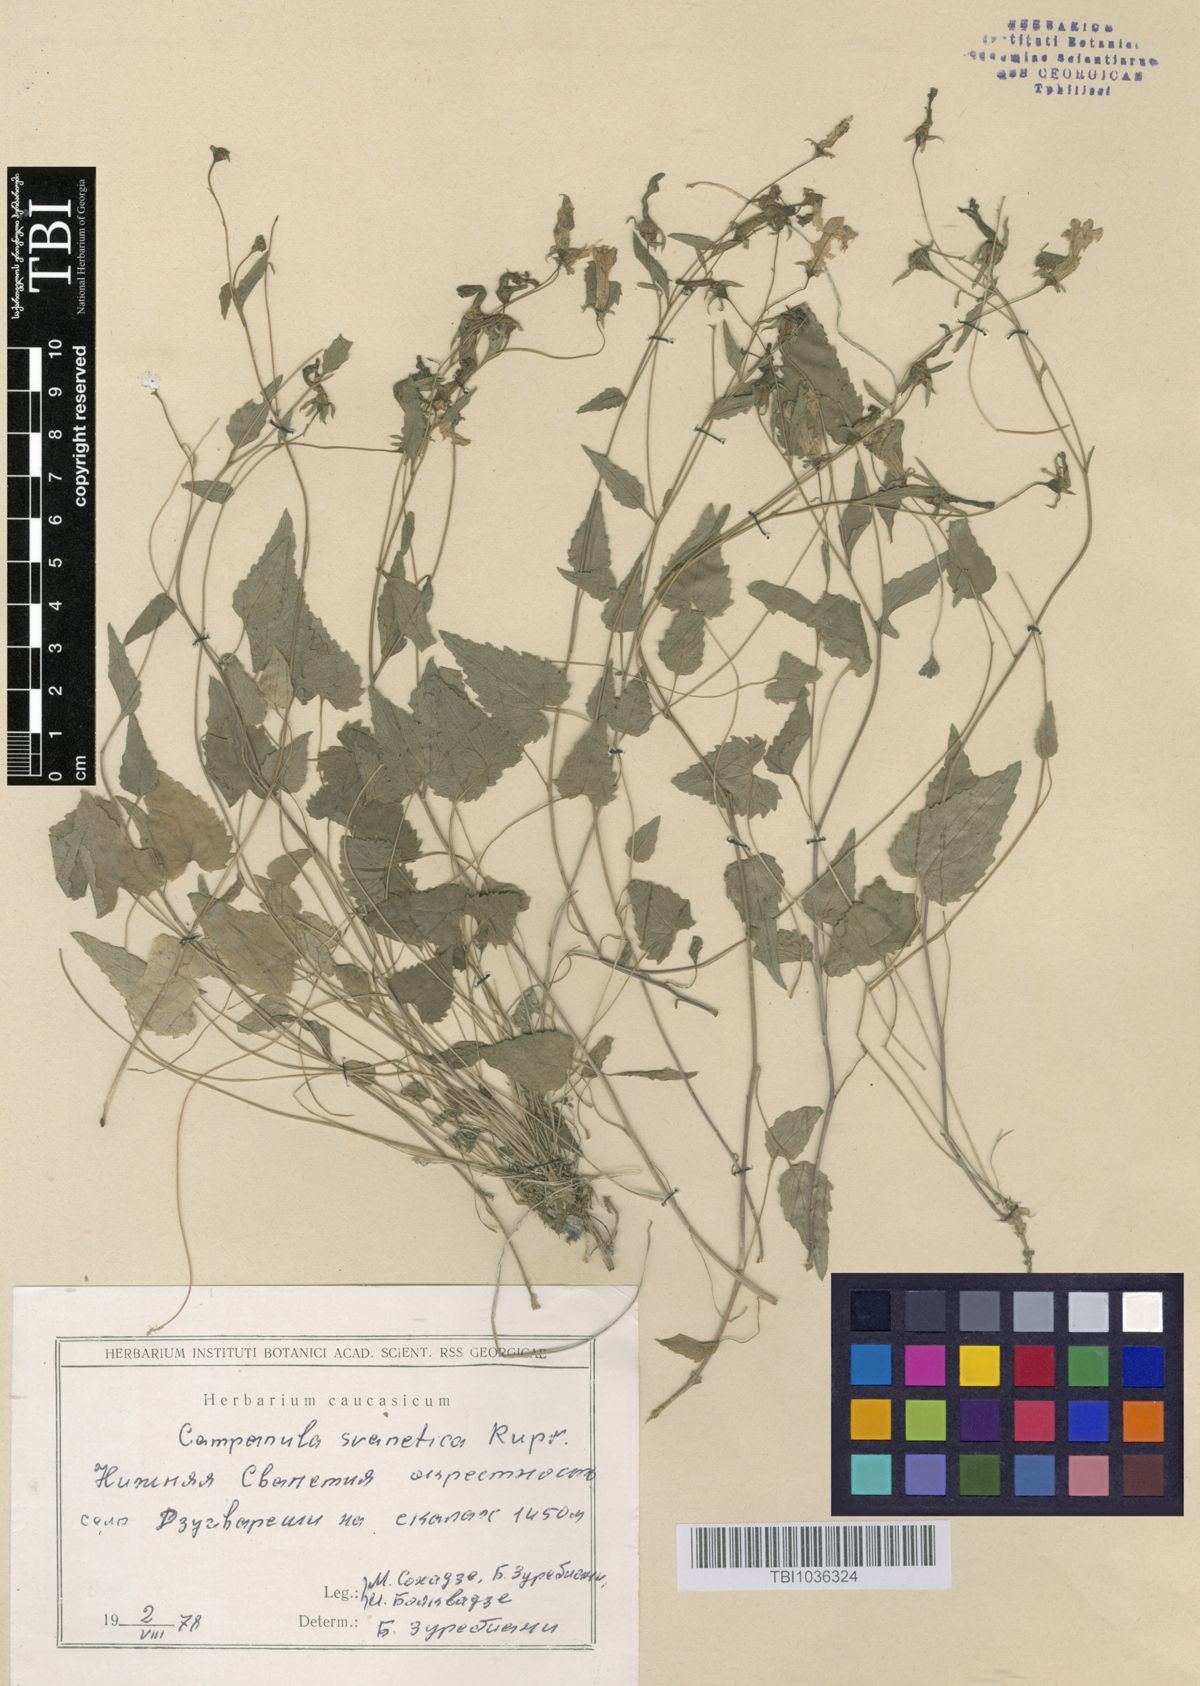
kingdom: Plantae
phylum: Tracheophyta
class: Magnoliopsida
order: Asterales
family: Campanulaceae
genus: Campanula
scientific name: Campanula suanetica
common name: Svanetian bellflower
